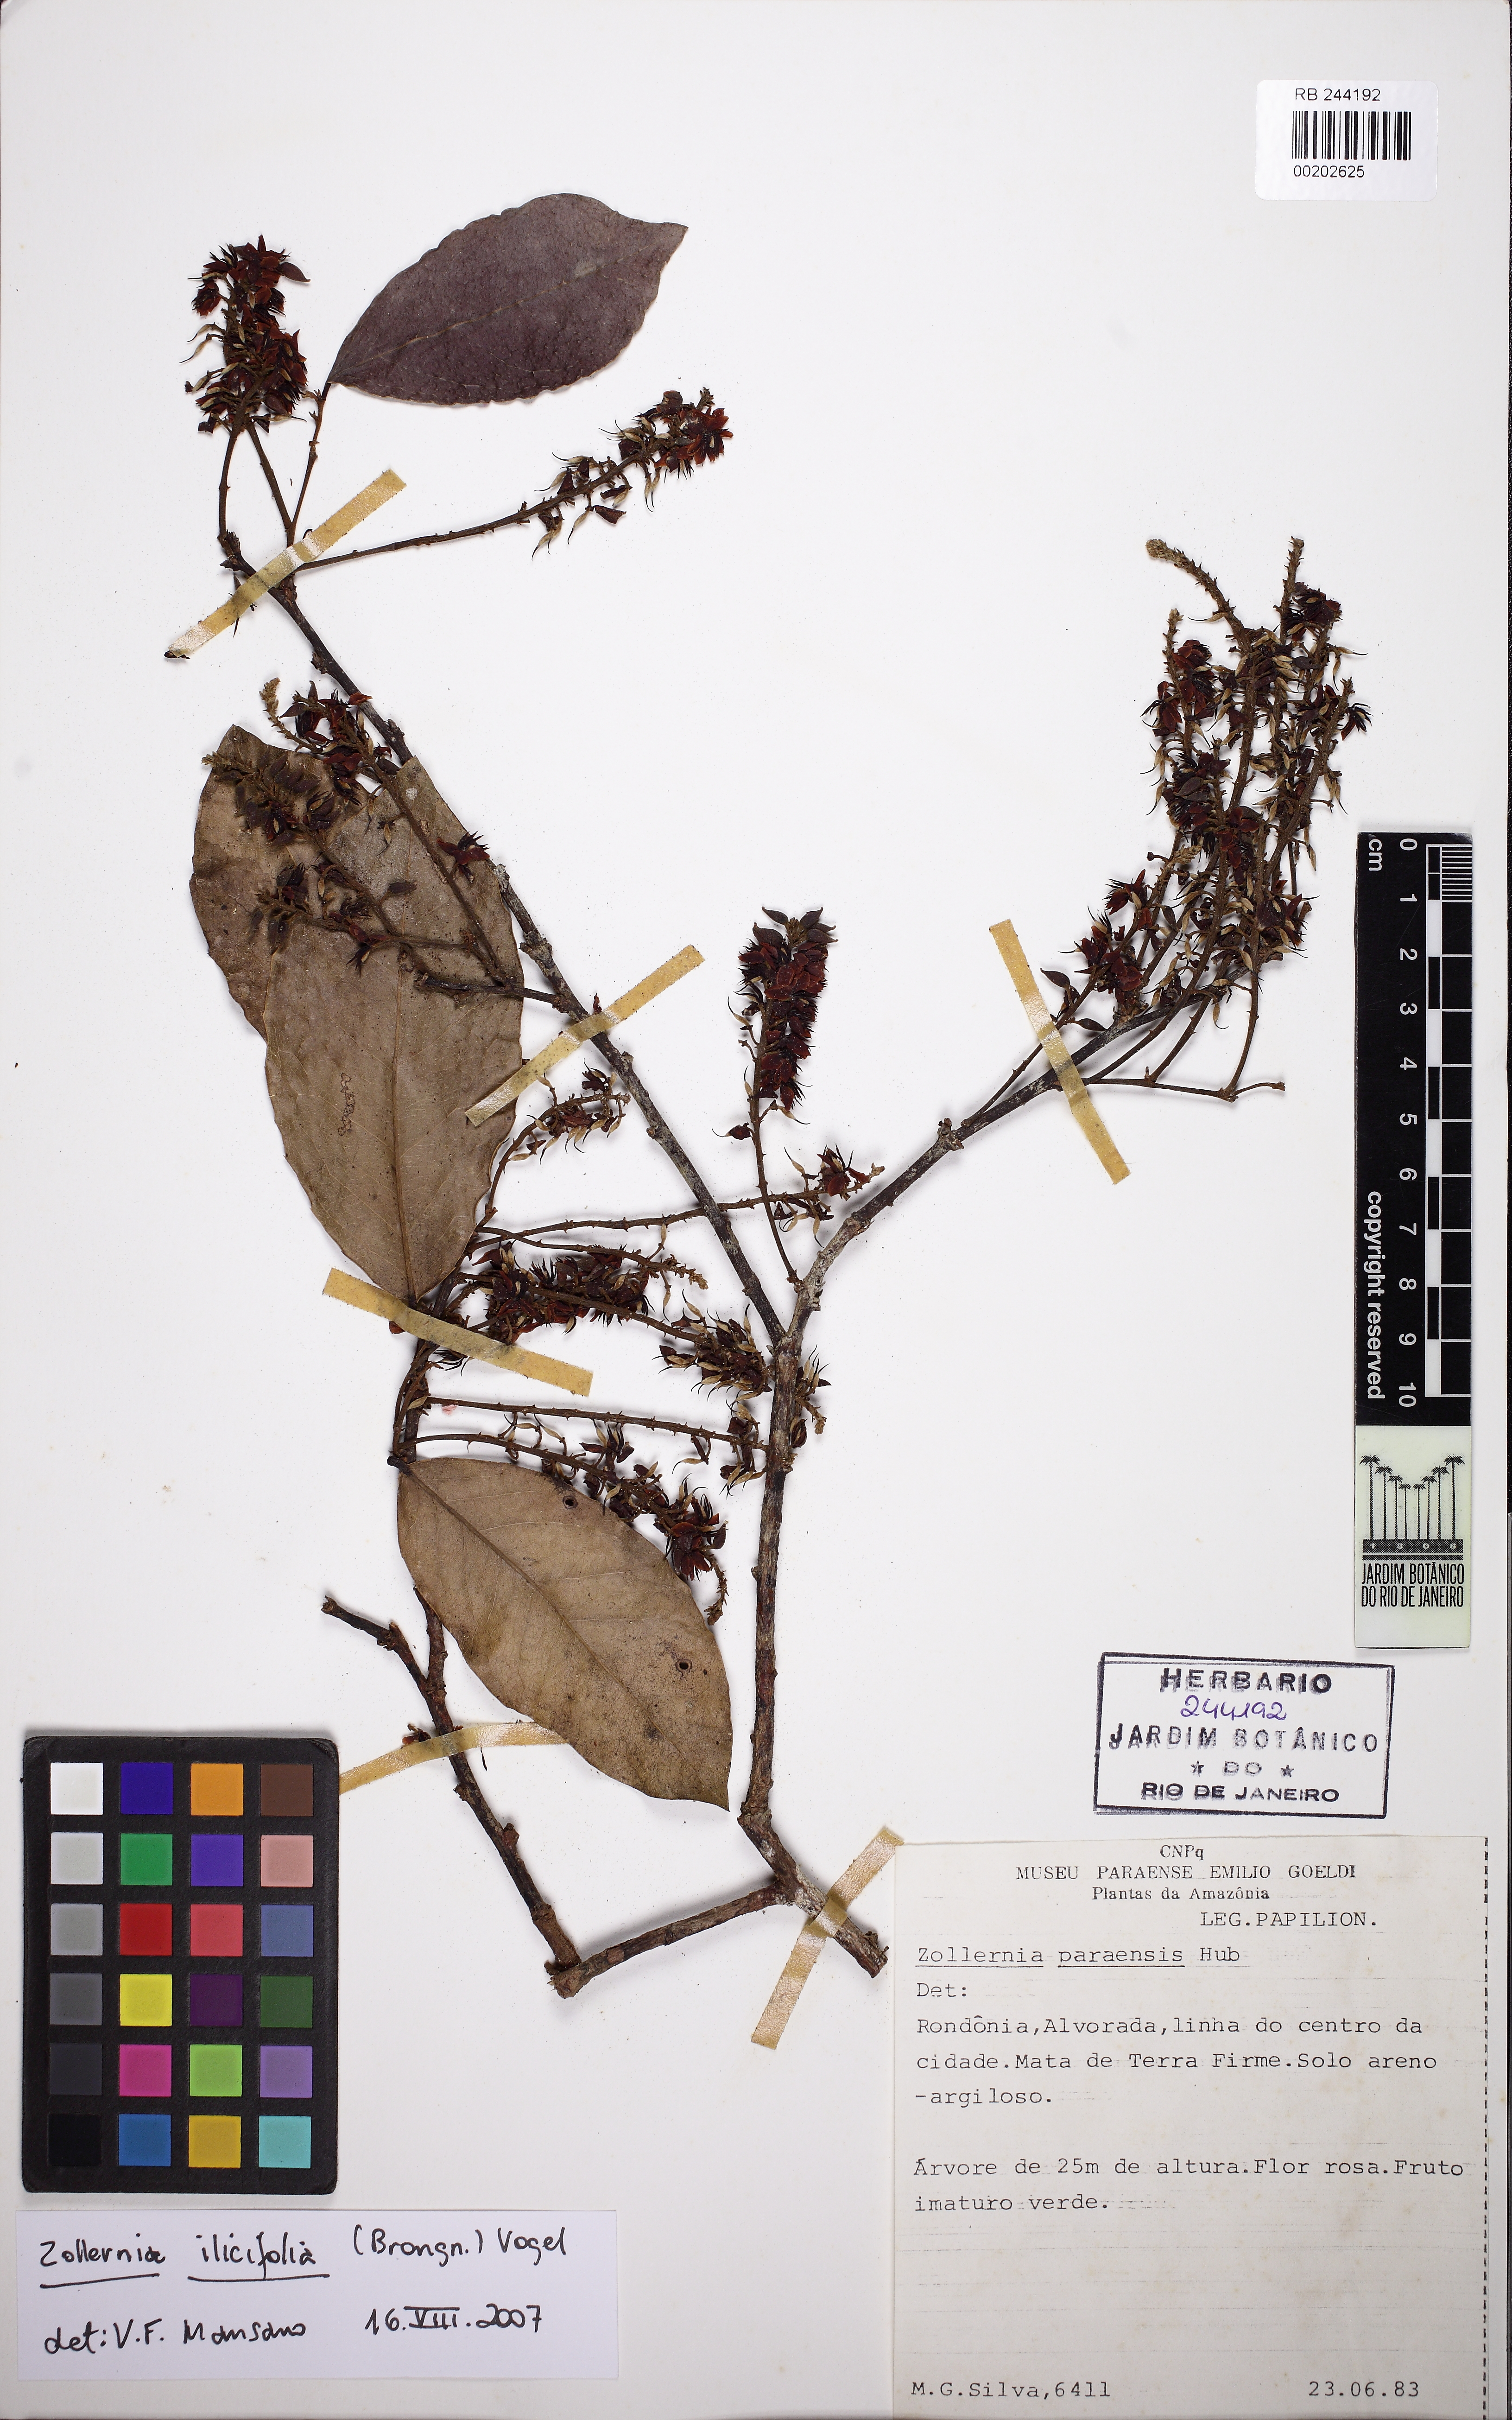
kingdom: Plantae
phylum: Tracheophyta
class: Magnoliopsida
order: Fabales
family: Fabaceae
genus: Zollernia
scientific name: Zollernia ilicifolia
